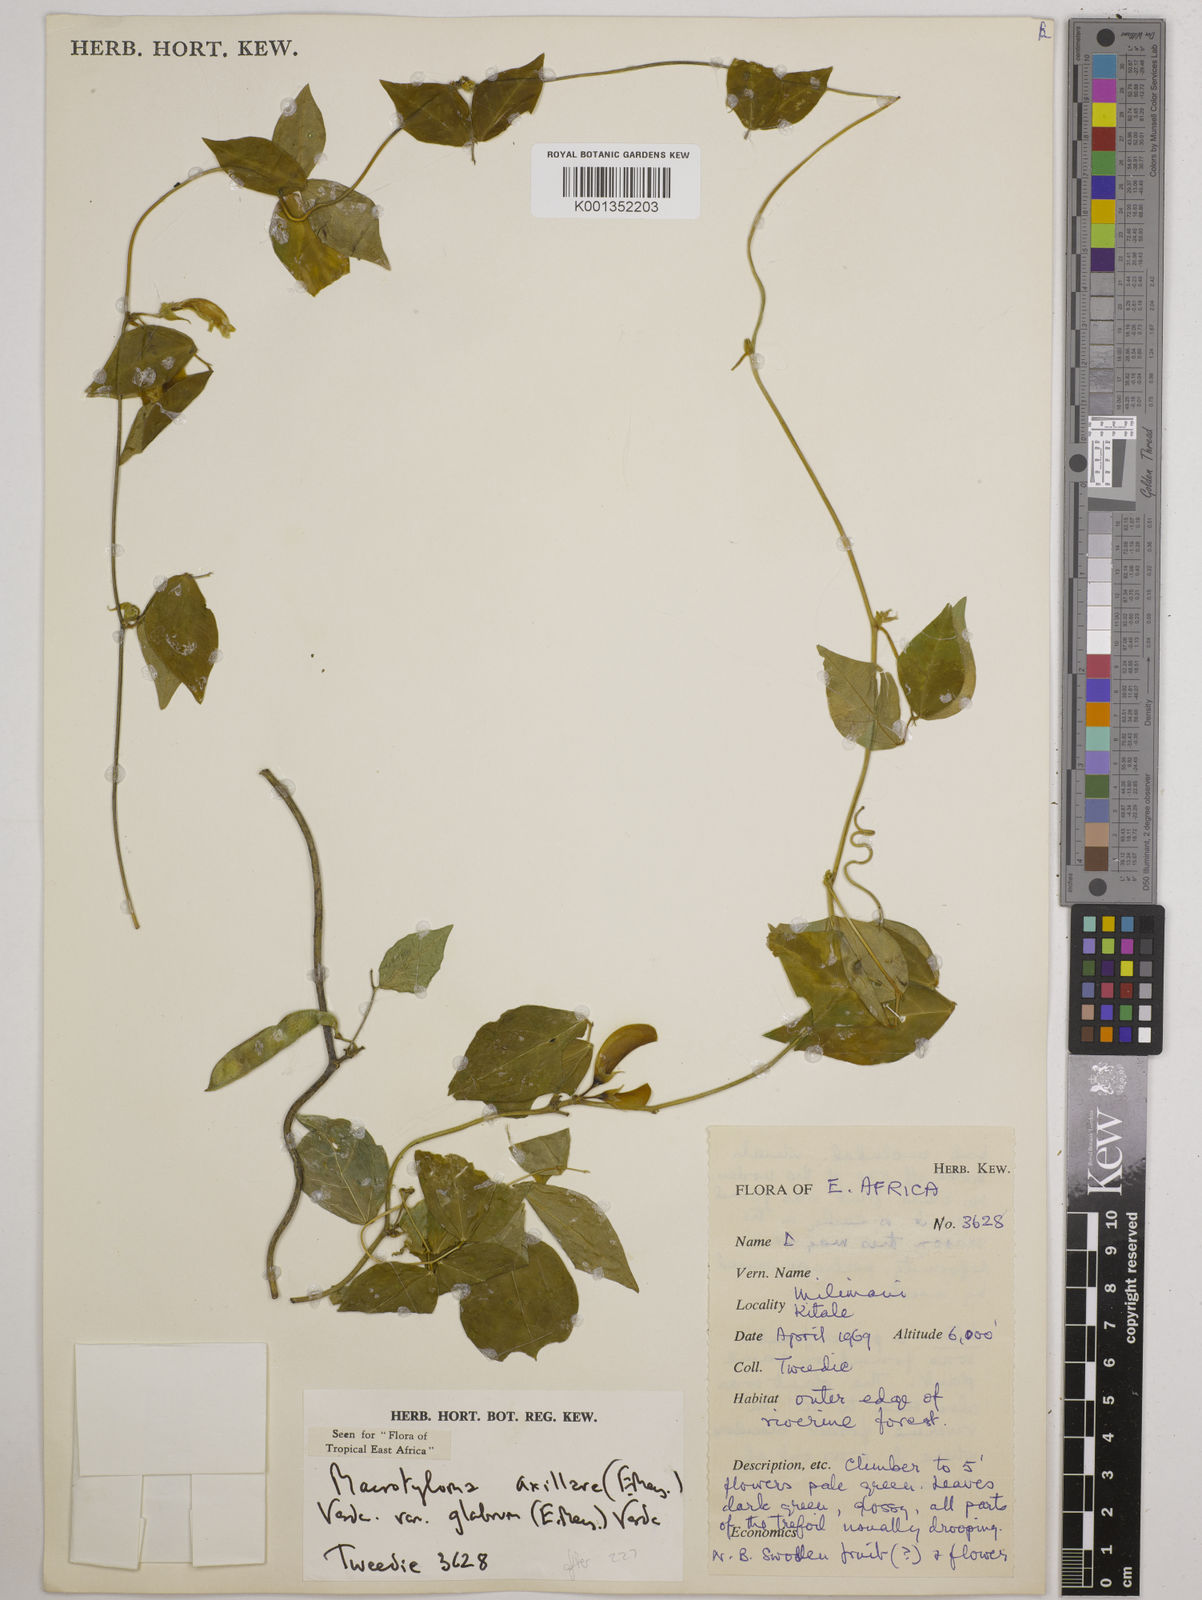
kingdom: Plantae
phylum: Tracheophyta
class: Magnoliopsida
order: Fabales
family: Fabaceae
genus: Macrotyloma
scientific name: Macrotyloma
